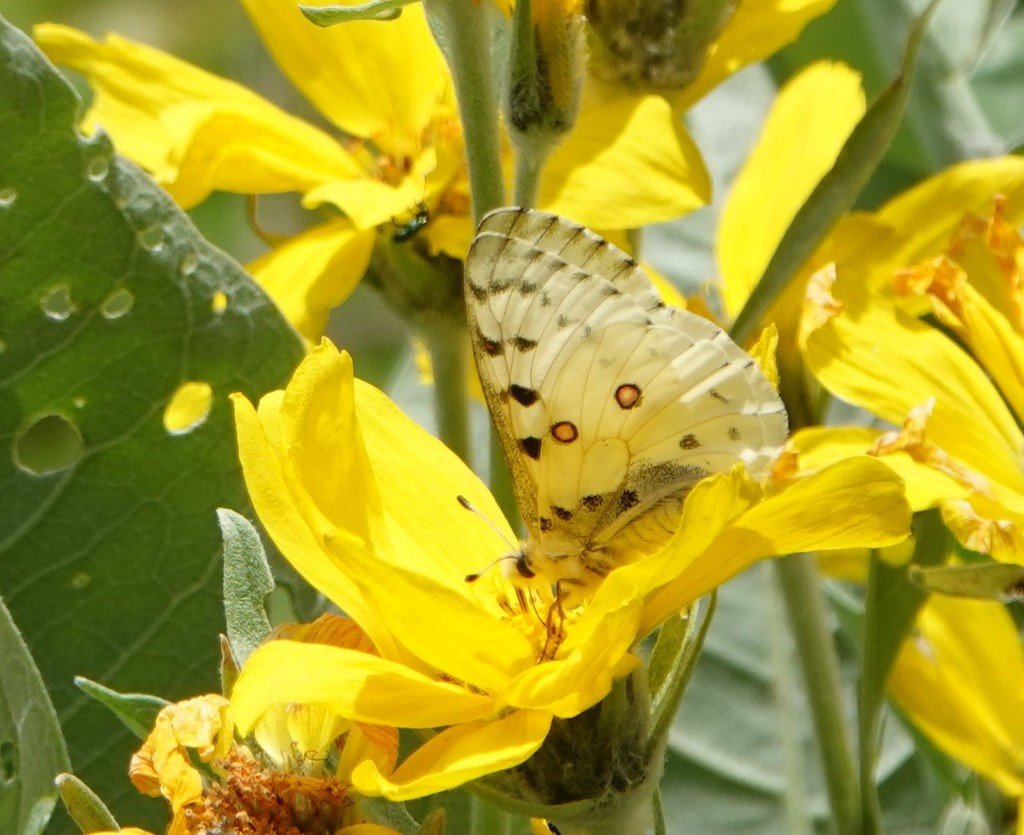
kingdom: Animalia
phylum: Arthropoda
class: Insecta
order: Lepidoptera
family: Papilionidae
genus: Parnassius
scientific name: Parnassius smintheus
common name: Rocky Mountain Parnassian
